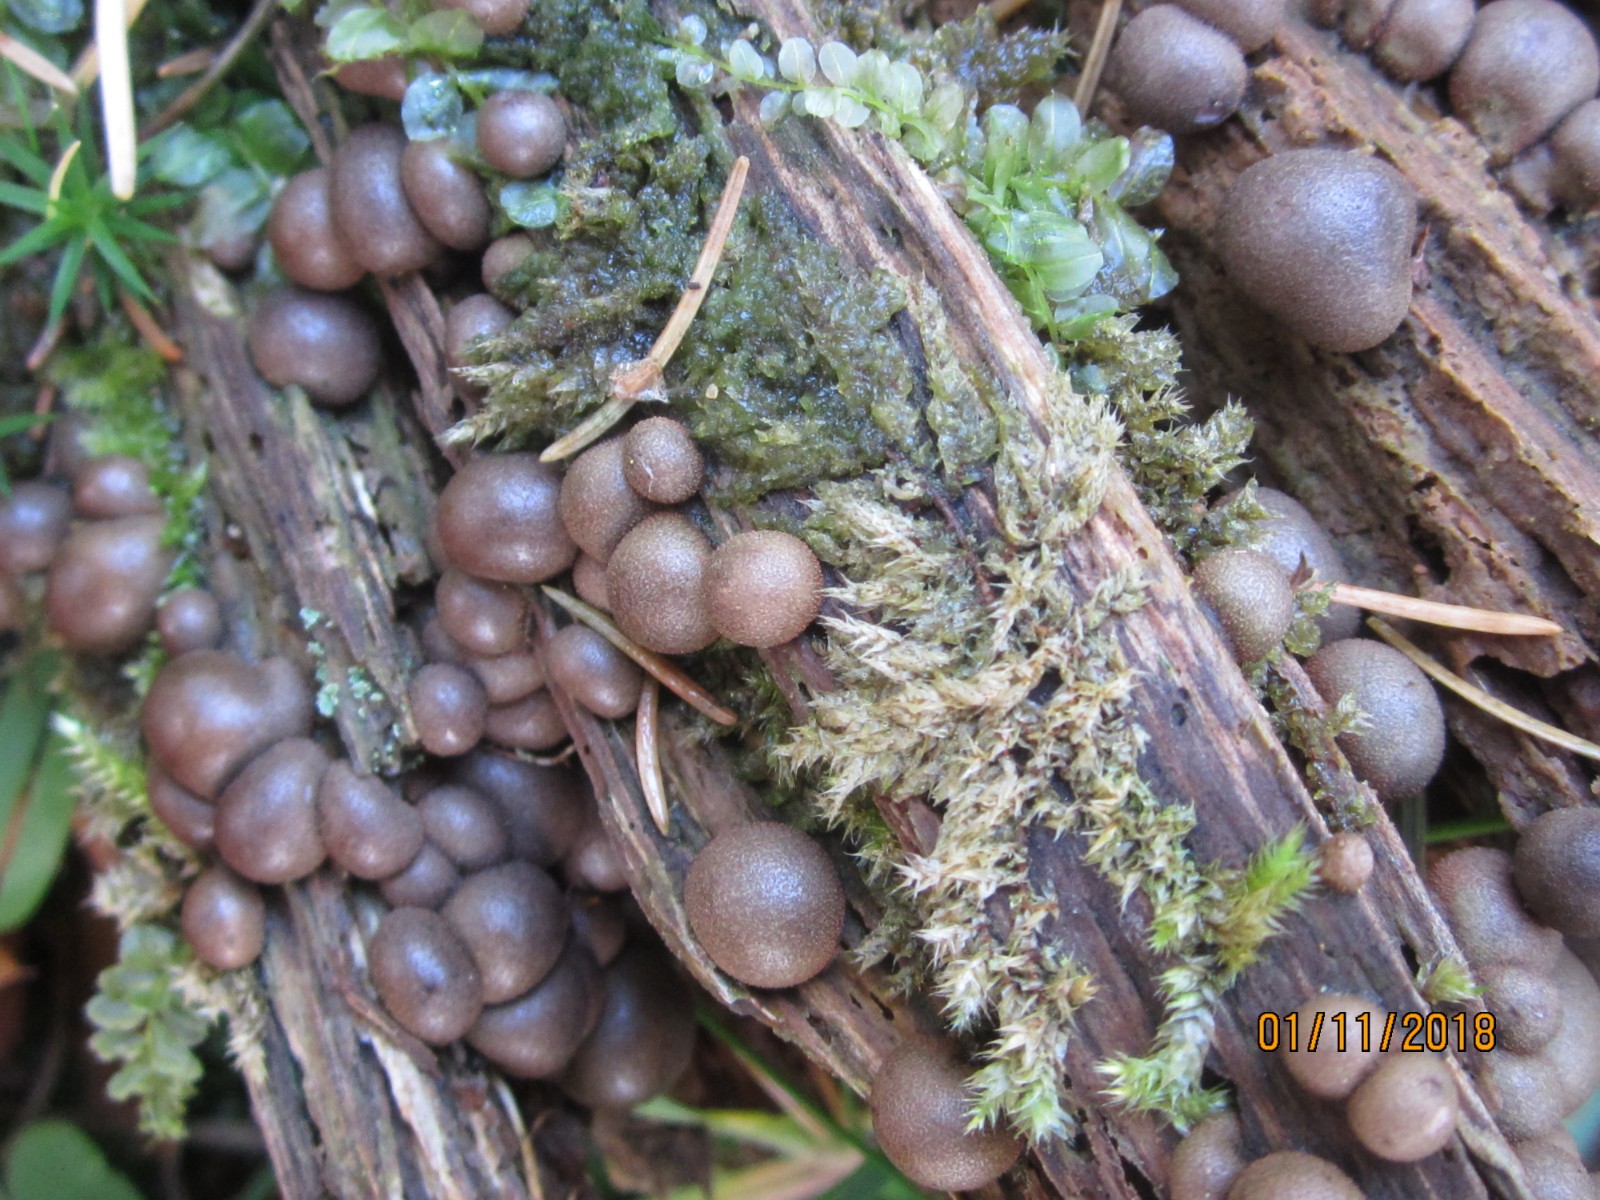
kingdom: Protozoa
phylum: Mycetozoa
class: Myxomycetes
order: Cribrariales
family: Tubiferaceae
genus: Lycogala
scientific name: Lycogala epidendrum
